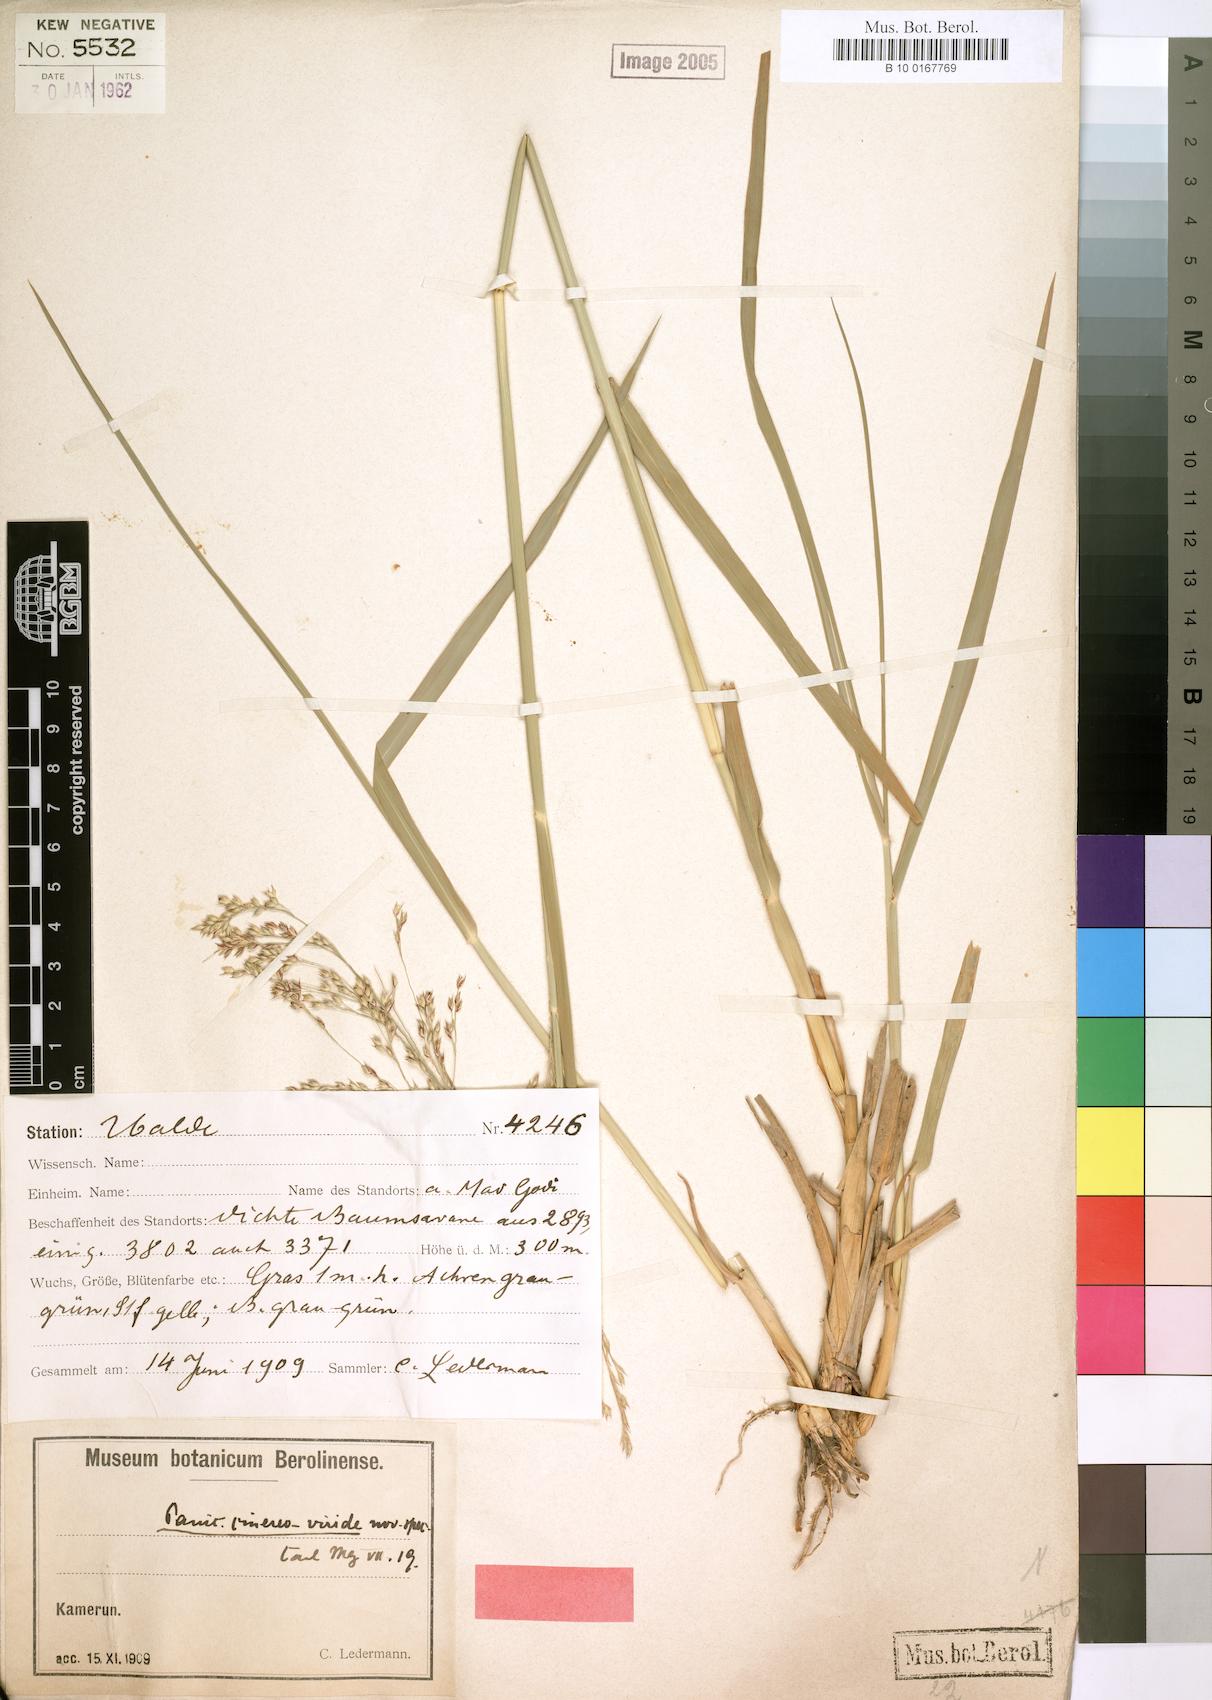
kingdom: Plantae
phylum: Tracheophyta
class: Liliopsida
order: Poales
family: Poaceae
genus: Panicum
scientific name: Panicum anabaptistum
